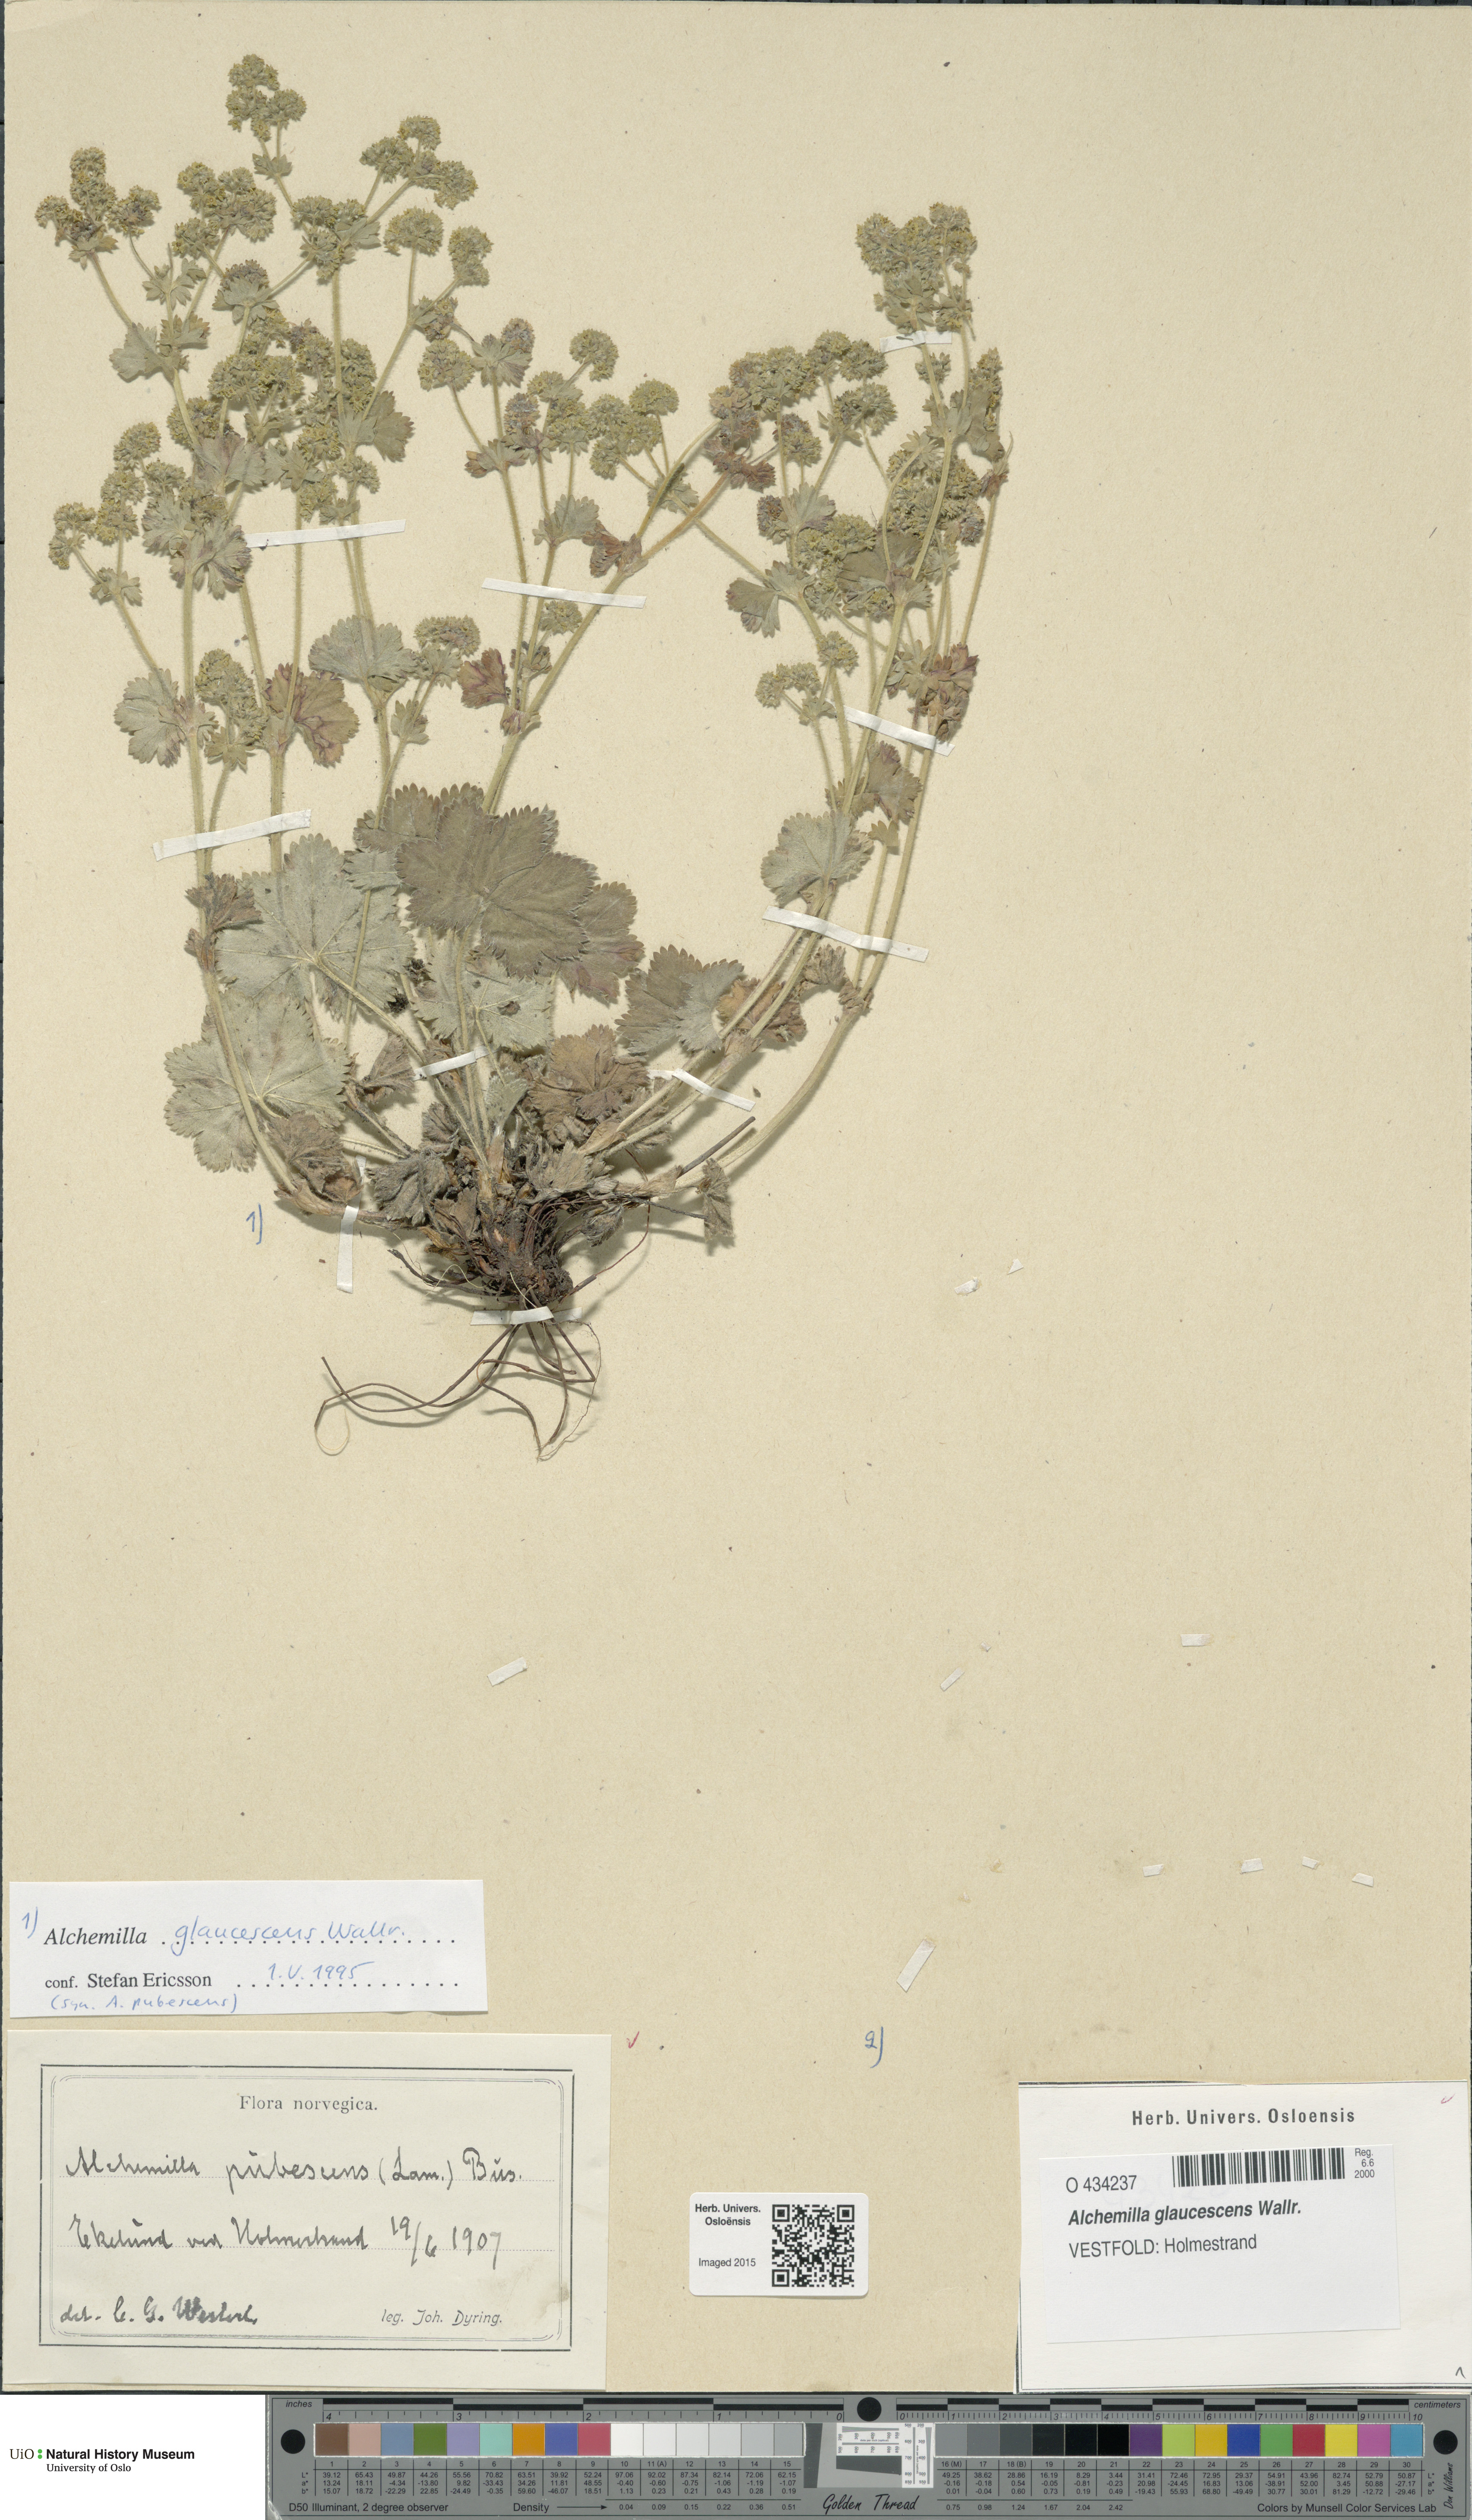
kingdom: Plantae
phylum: Tracheophyta
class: Magnoliopsida
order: Rosales
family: Rosaceae
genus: Alchemilla
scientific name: Alchemilla glaucescens
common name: Silky lady's mantle
